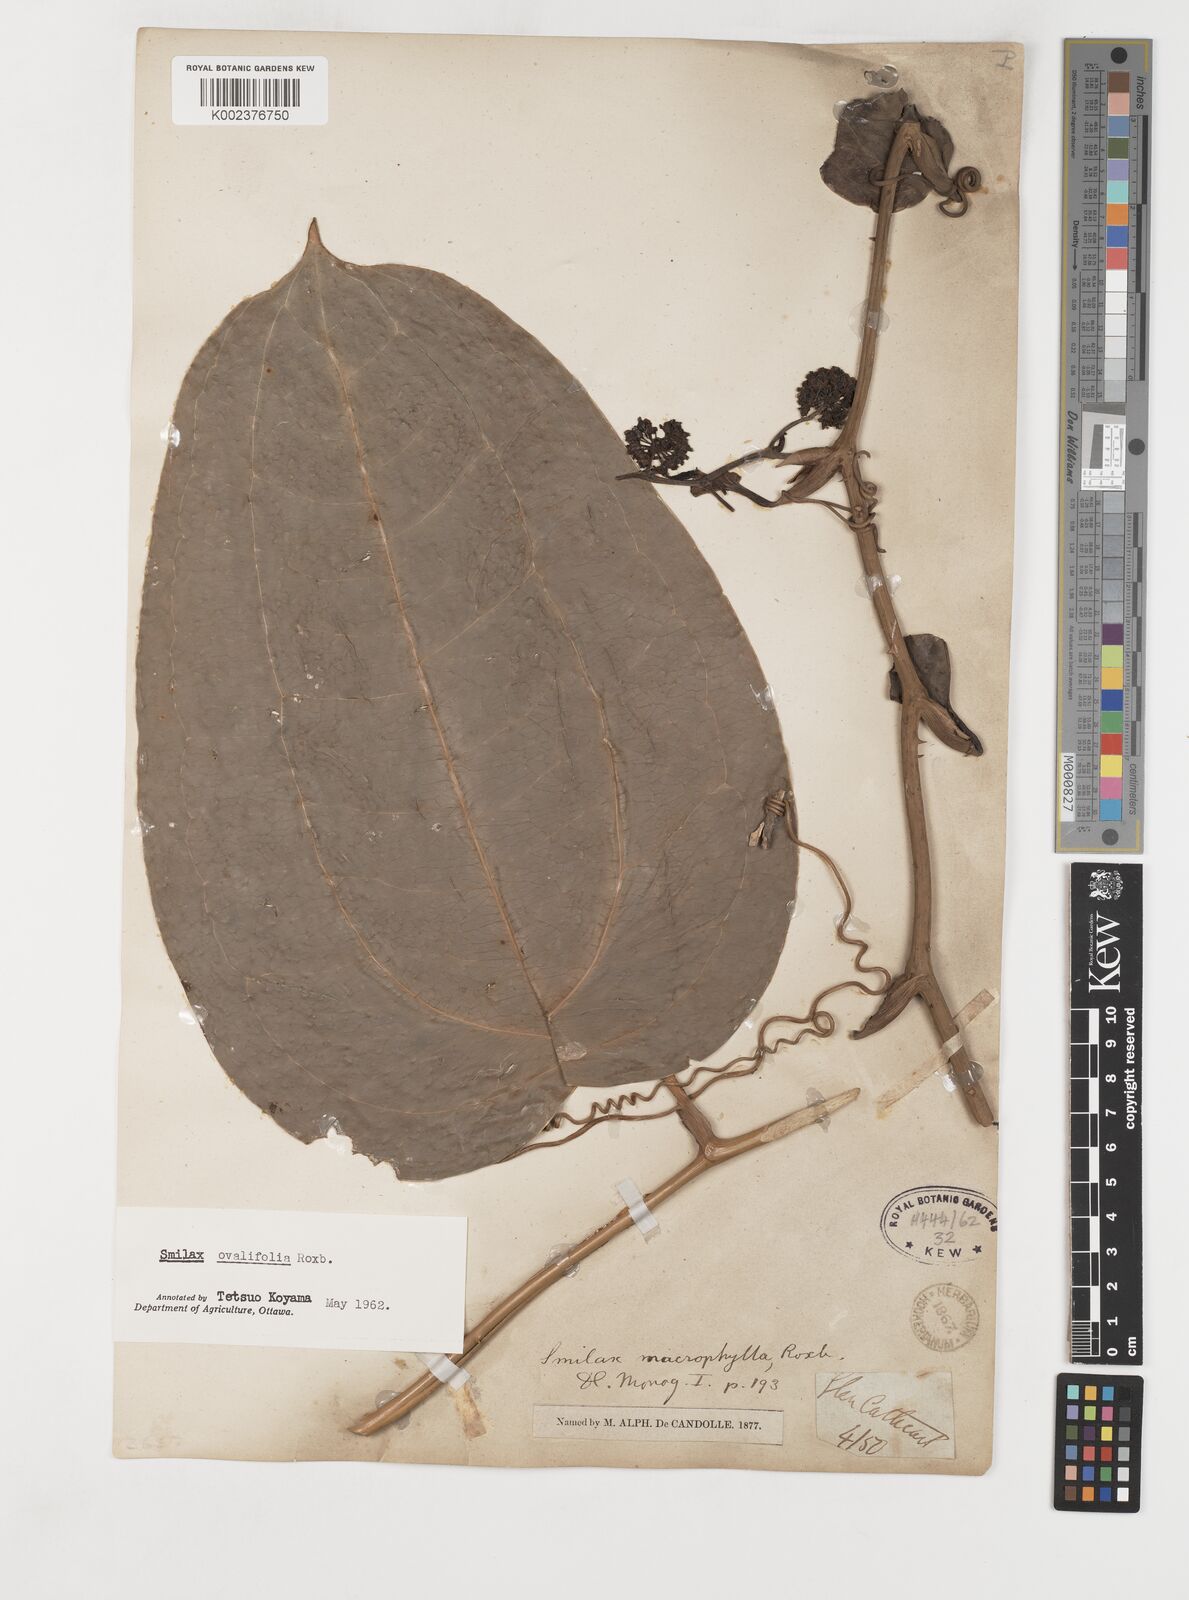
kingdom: Plantae
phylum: Tracheophyta
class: Liliopsida
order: Liliales
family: Smilacaceae
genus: Smilax
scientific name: Smilax ovalifolia
